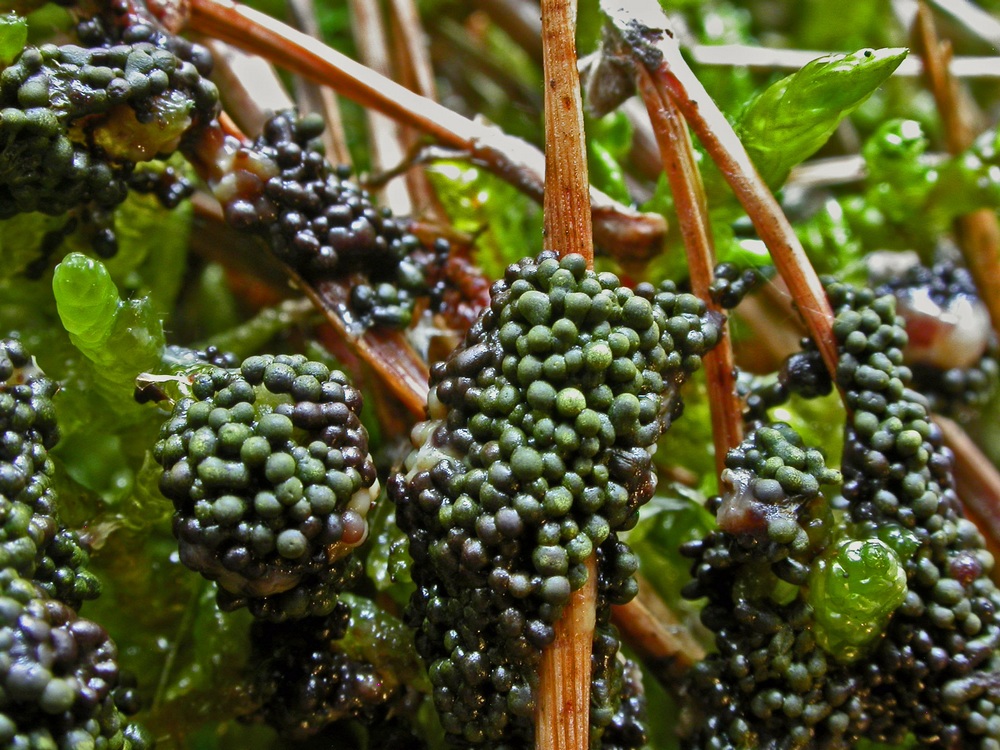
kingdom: Protozoa
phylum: Mycetozoa
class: Myxomycetes
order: Physarales
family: Physaraceae
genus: Physarum
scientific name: Physarum virescens
